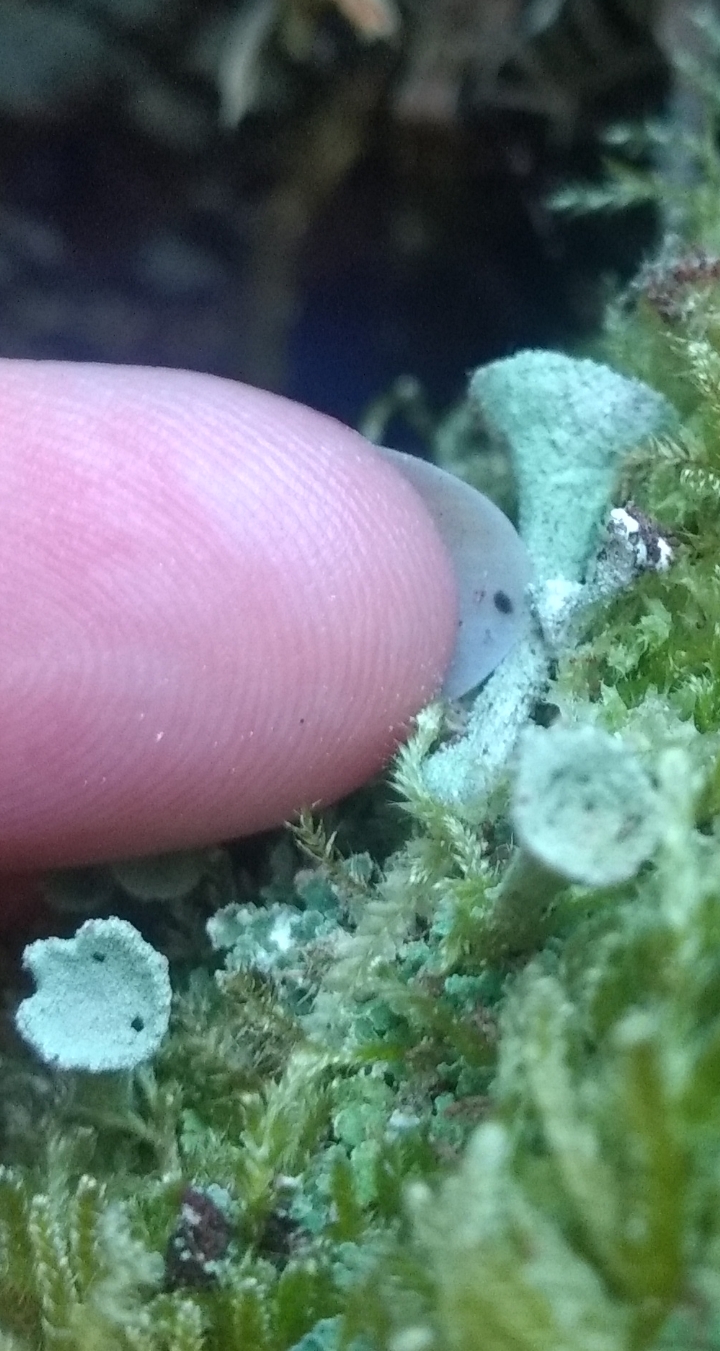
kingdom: Fungi
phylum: Ascomycota
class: Lecanoromycetes
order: Lecanorales
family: Cladoniaceae
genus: Cladonia
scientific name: Cladonia
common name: brungrøn bægerlav
